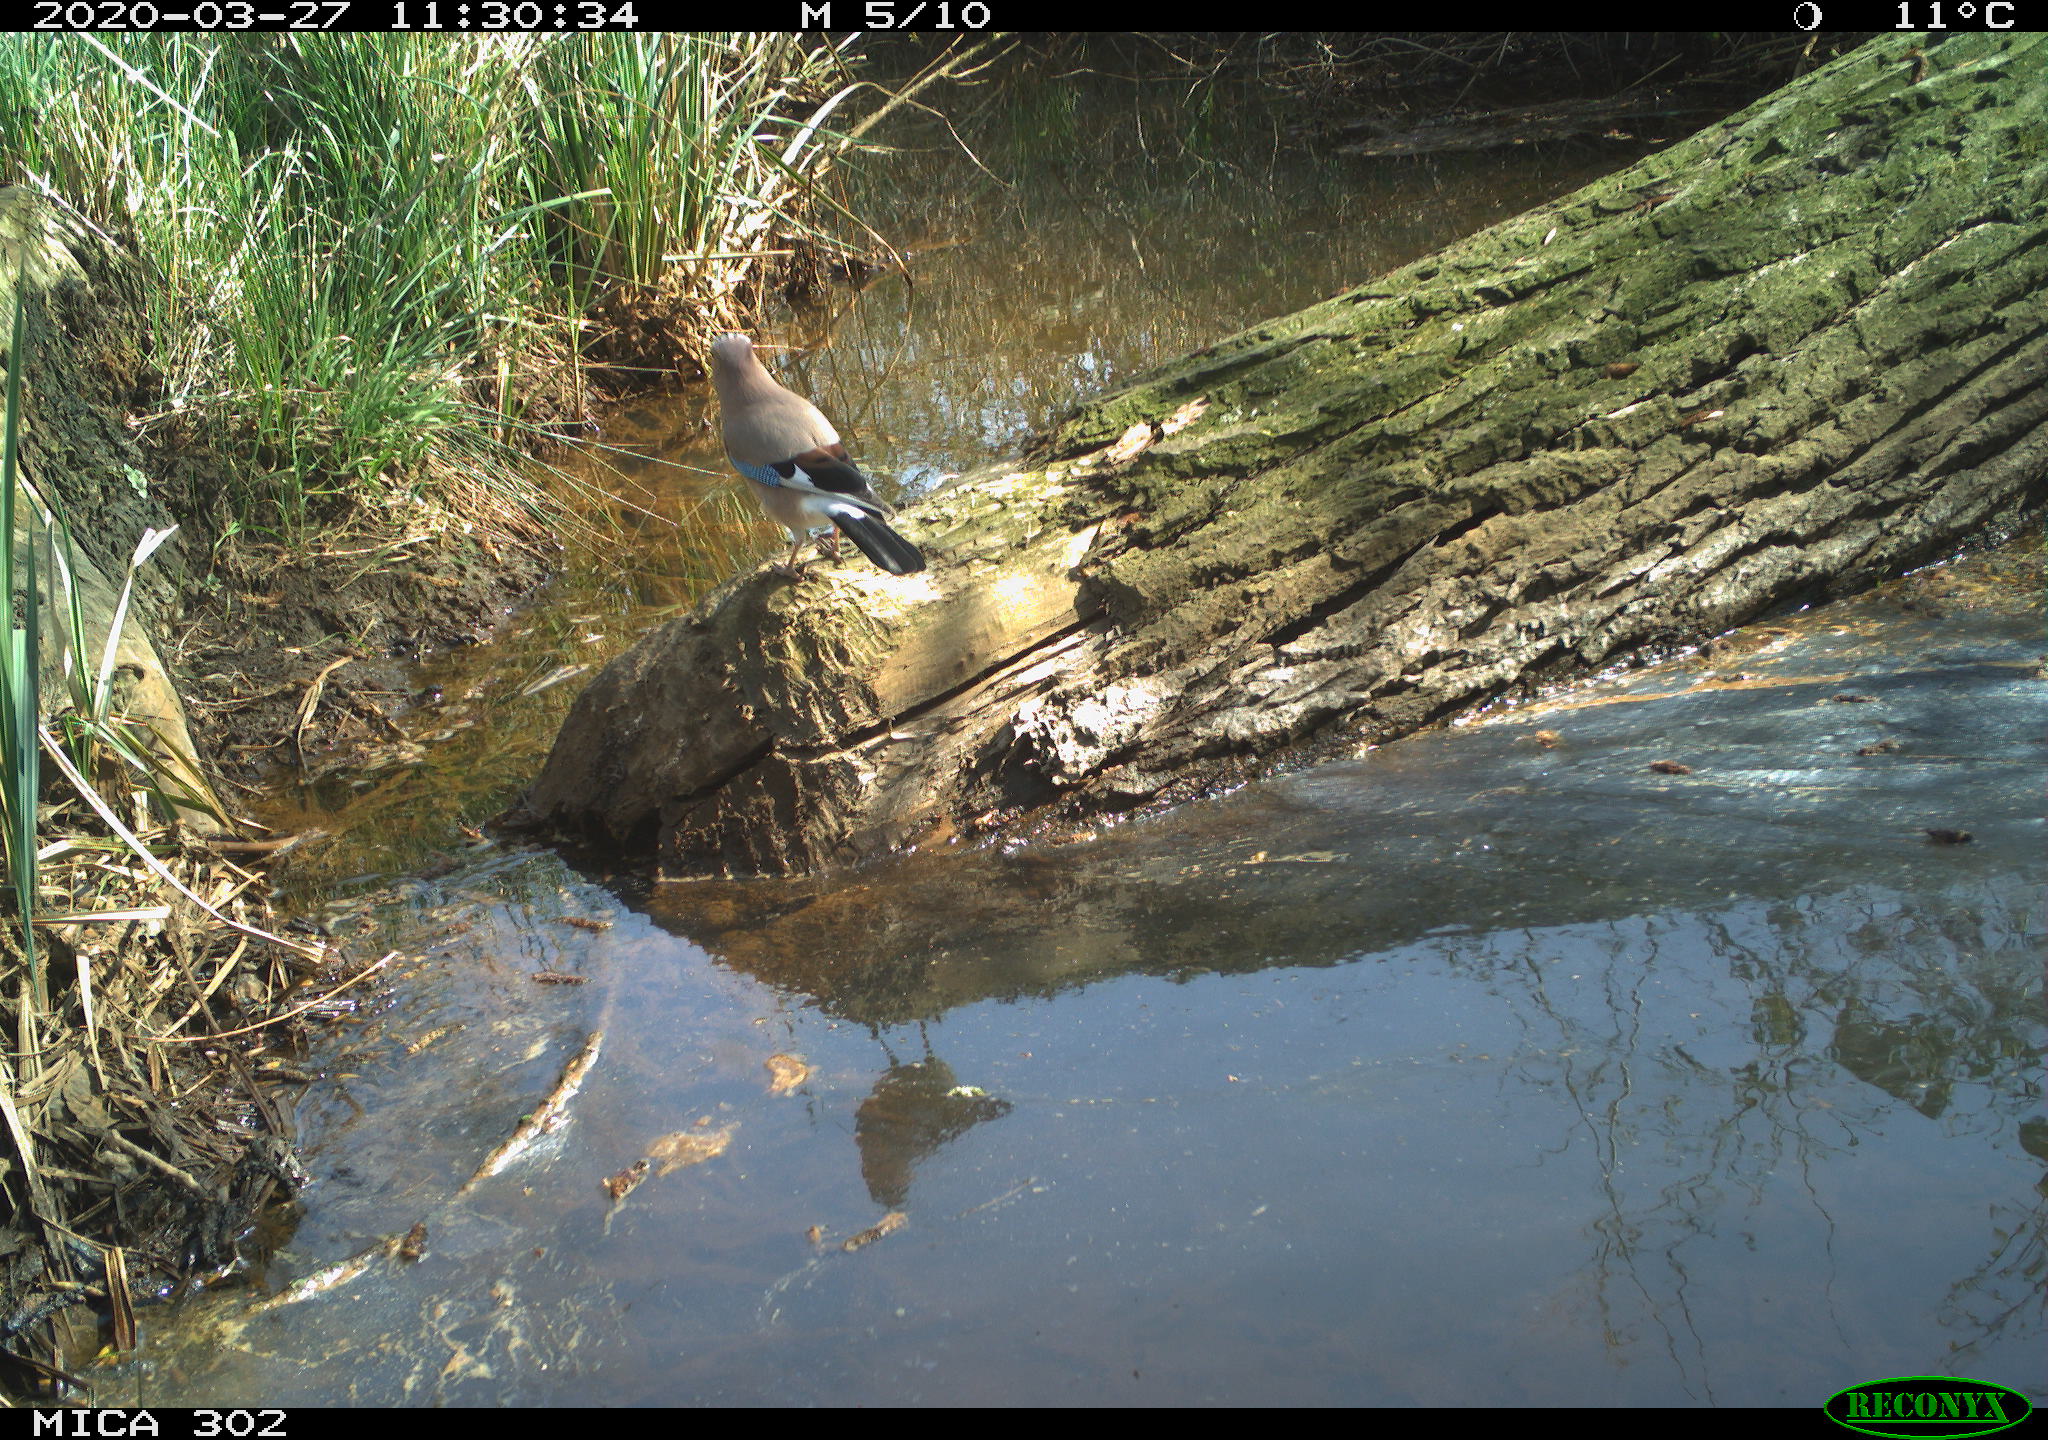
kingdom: Animalia
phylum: Chordata
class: Aves
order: Passeriformes
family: Corvidae
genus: Garrulus
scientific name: Garrulus glandarius
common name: Eurasian jay
